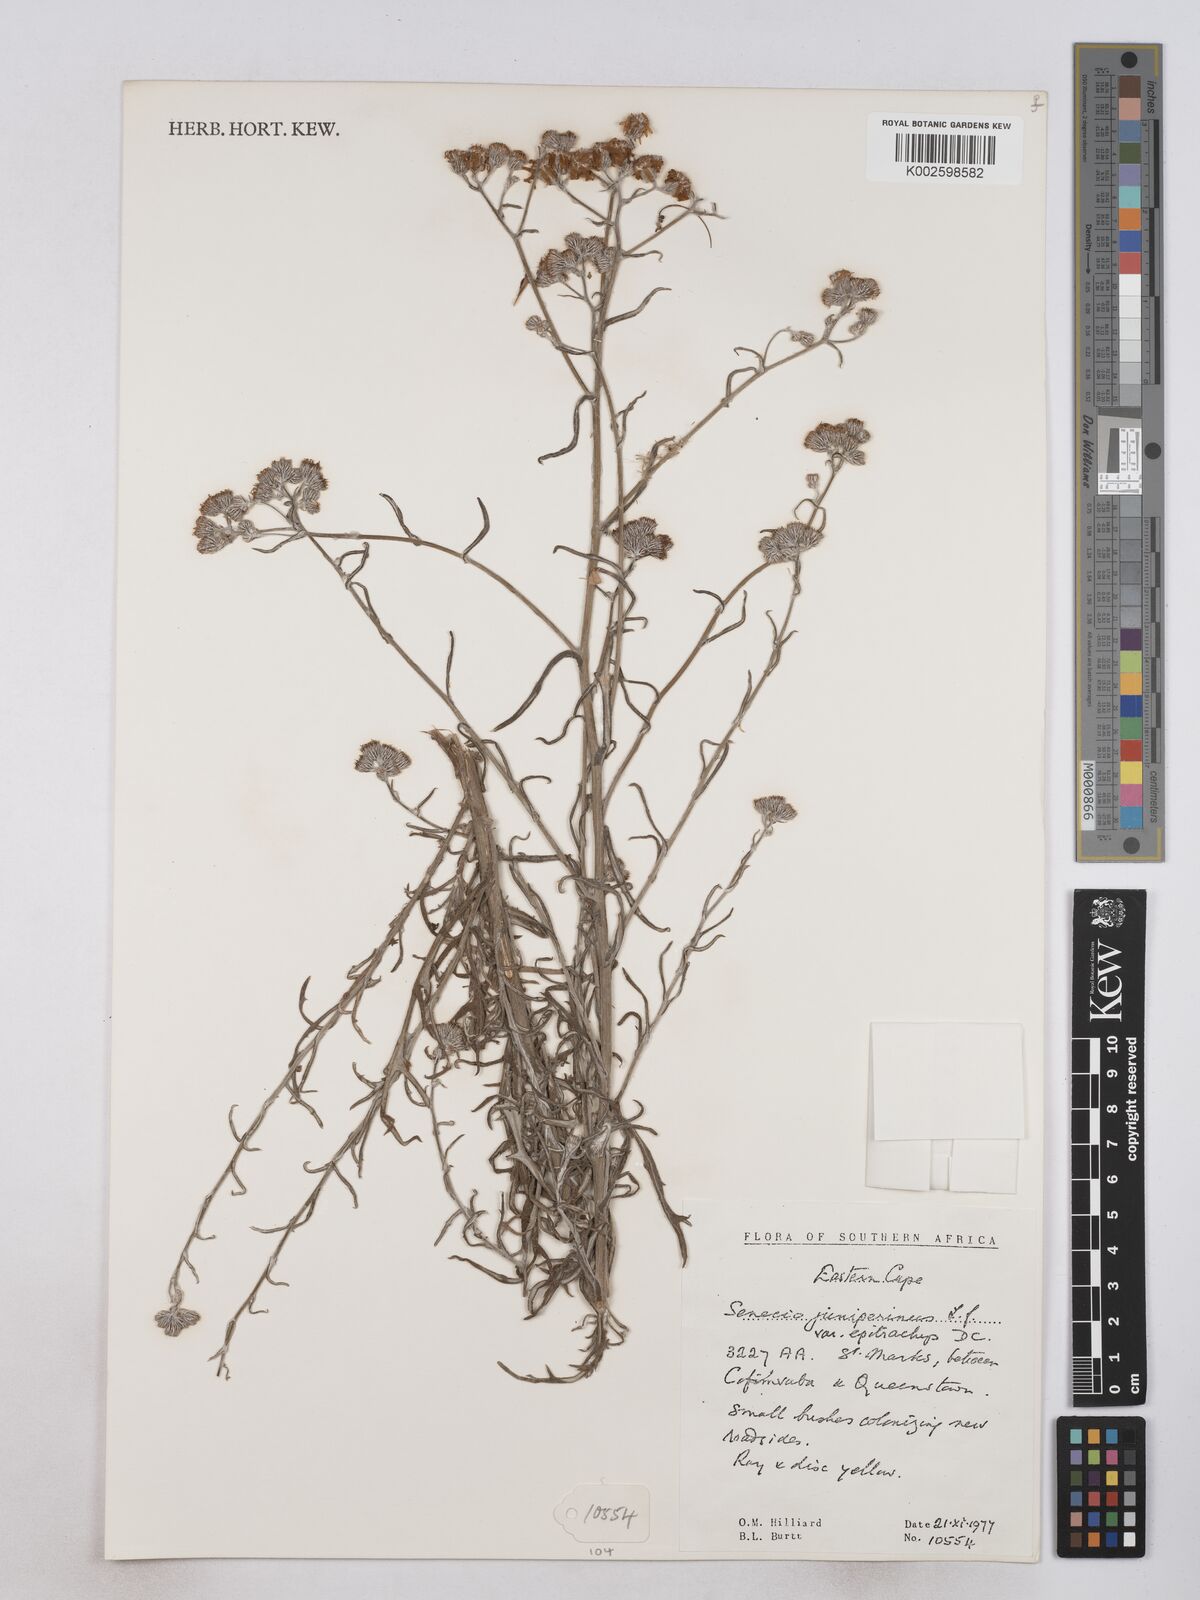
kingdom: Plantae
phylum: Tracheophyta
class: Magnoliopsida
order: Asterales
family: Asteraceae
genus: Senecio
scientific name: Senecio juniperinus
